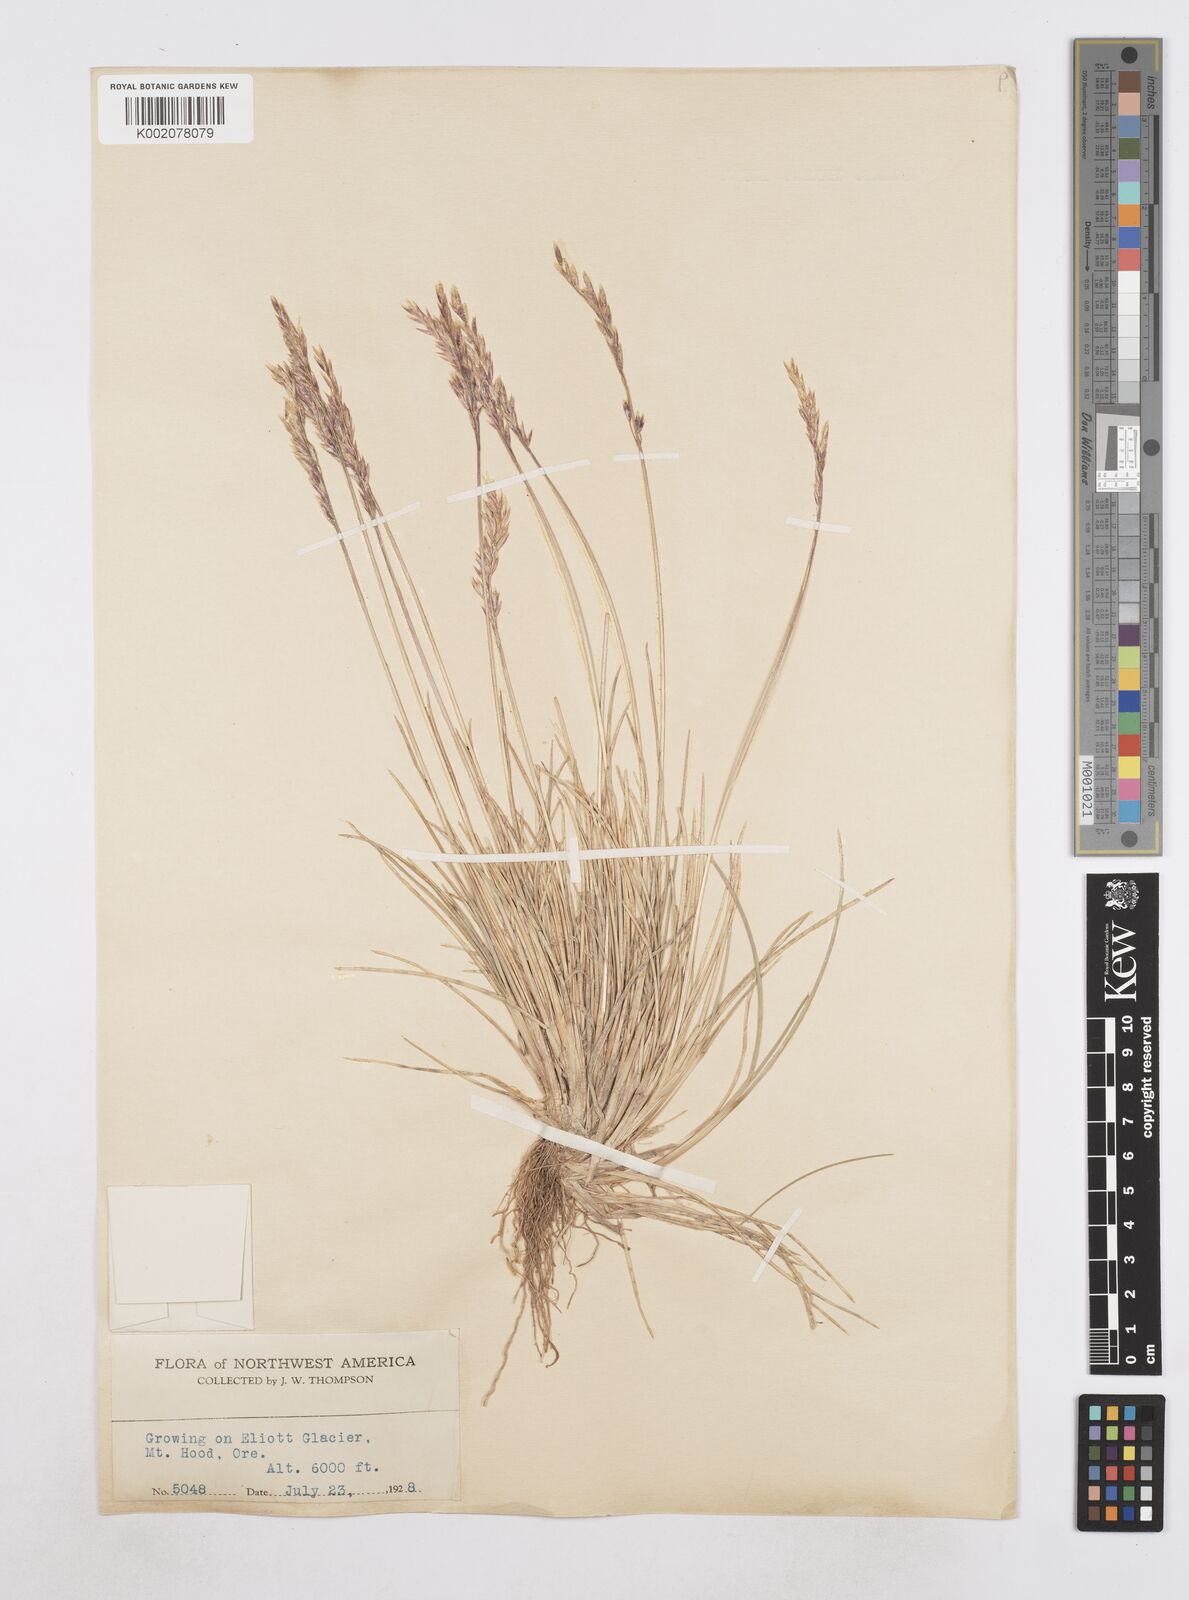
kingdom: Plantae
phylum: Tracheophyta
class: Liliopsida
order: Poales
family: Poaceae
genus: Poa
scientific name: Poa
